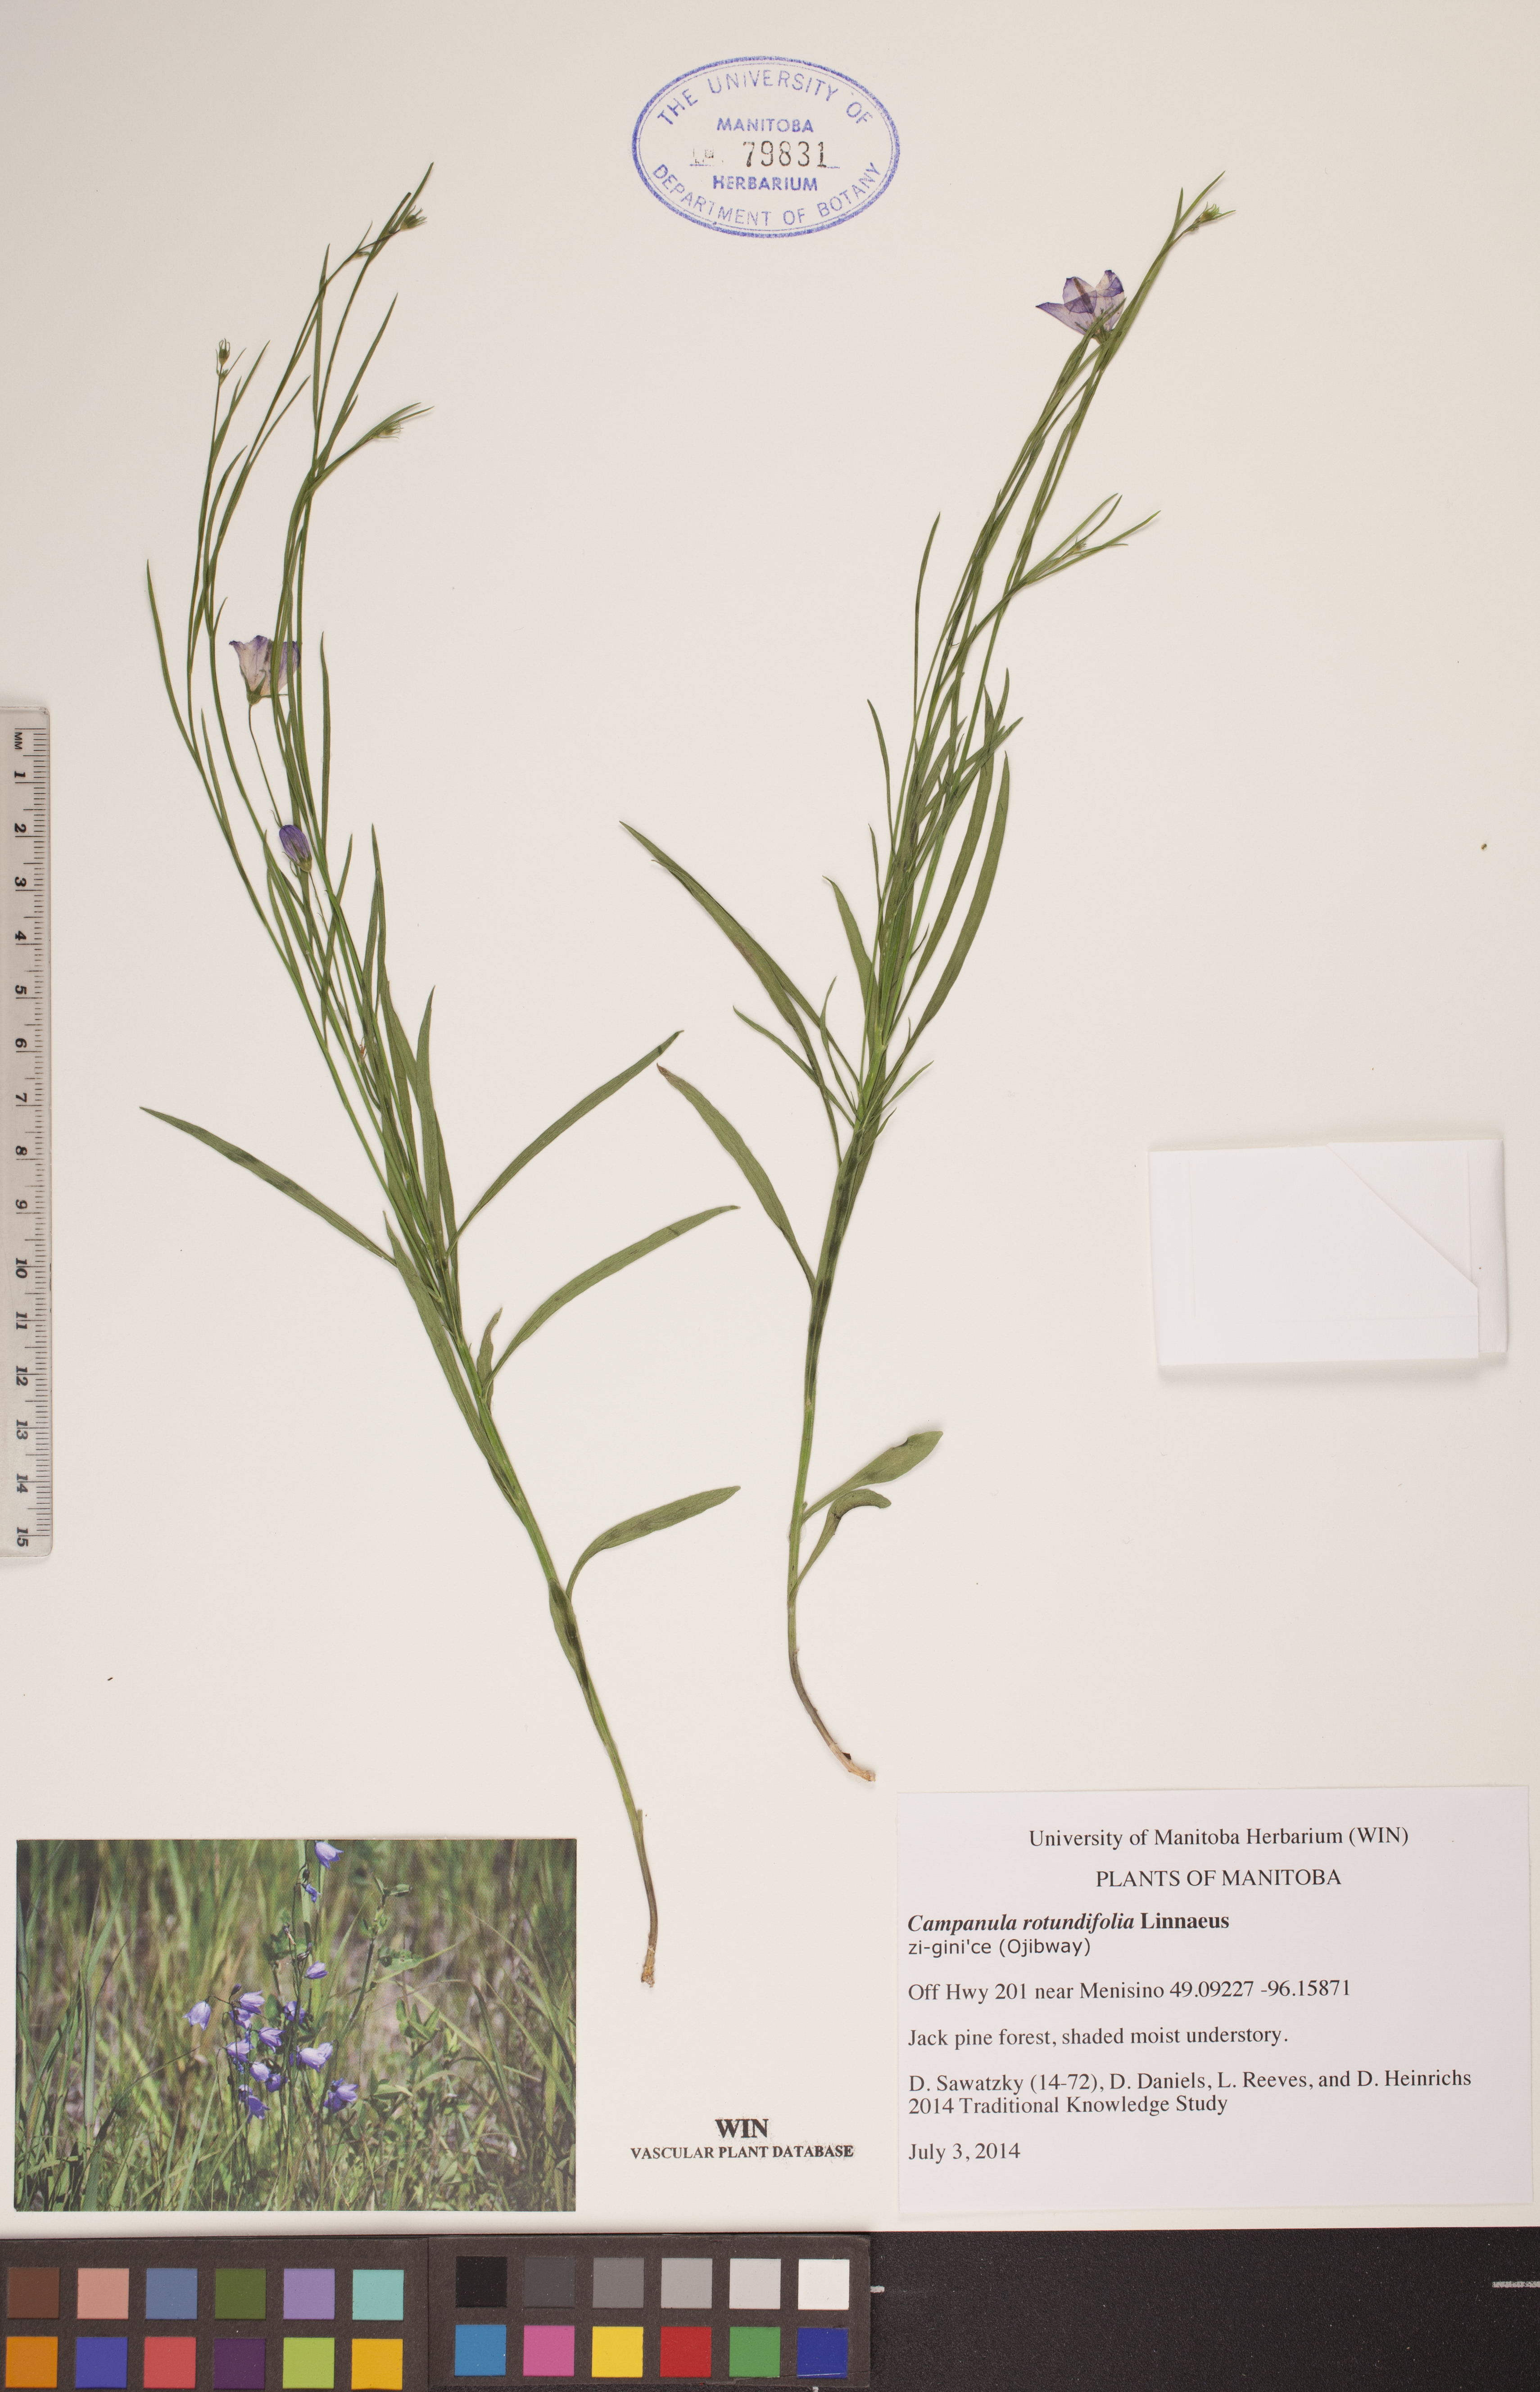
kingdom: Plantae
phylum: Tracheophyta
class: Magnoliopsida
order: Asterales
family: Campanulaceae
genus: Campanula
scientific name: Campanula rotundifolia
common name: Harebell
